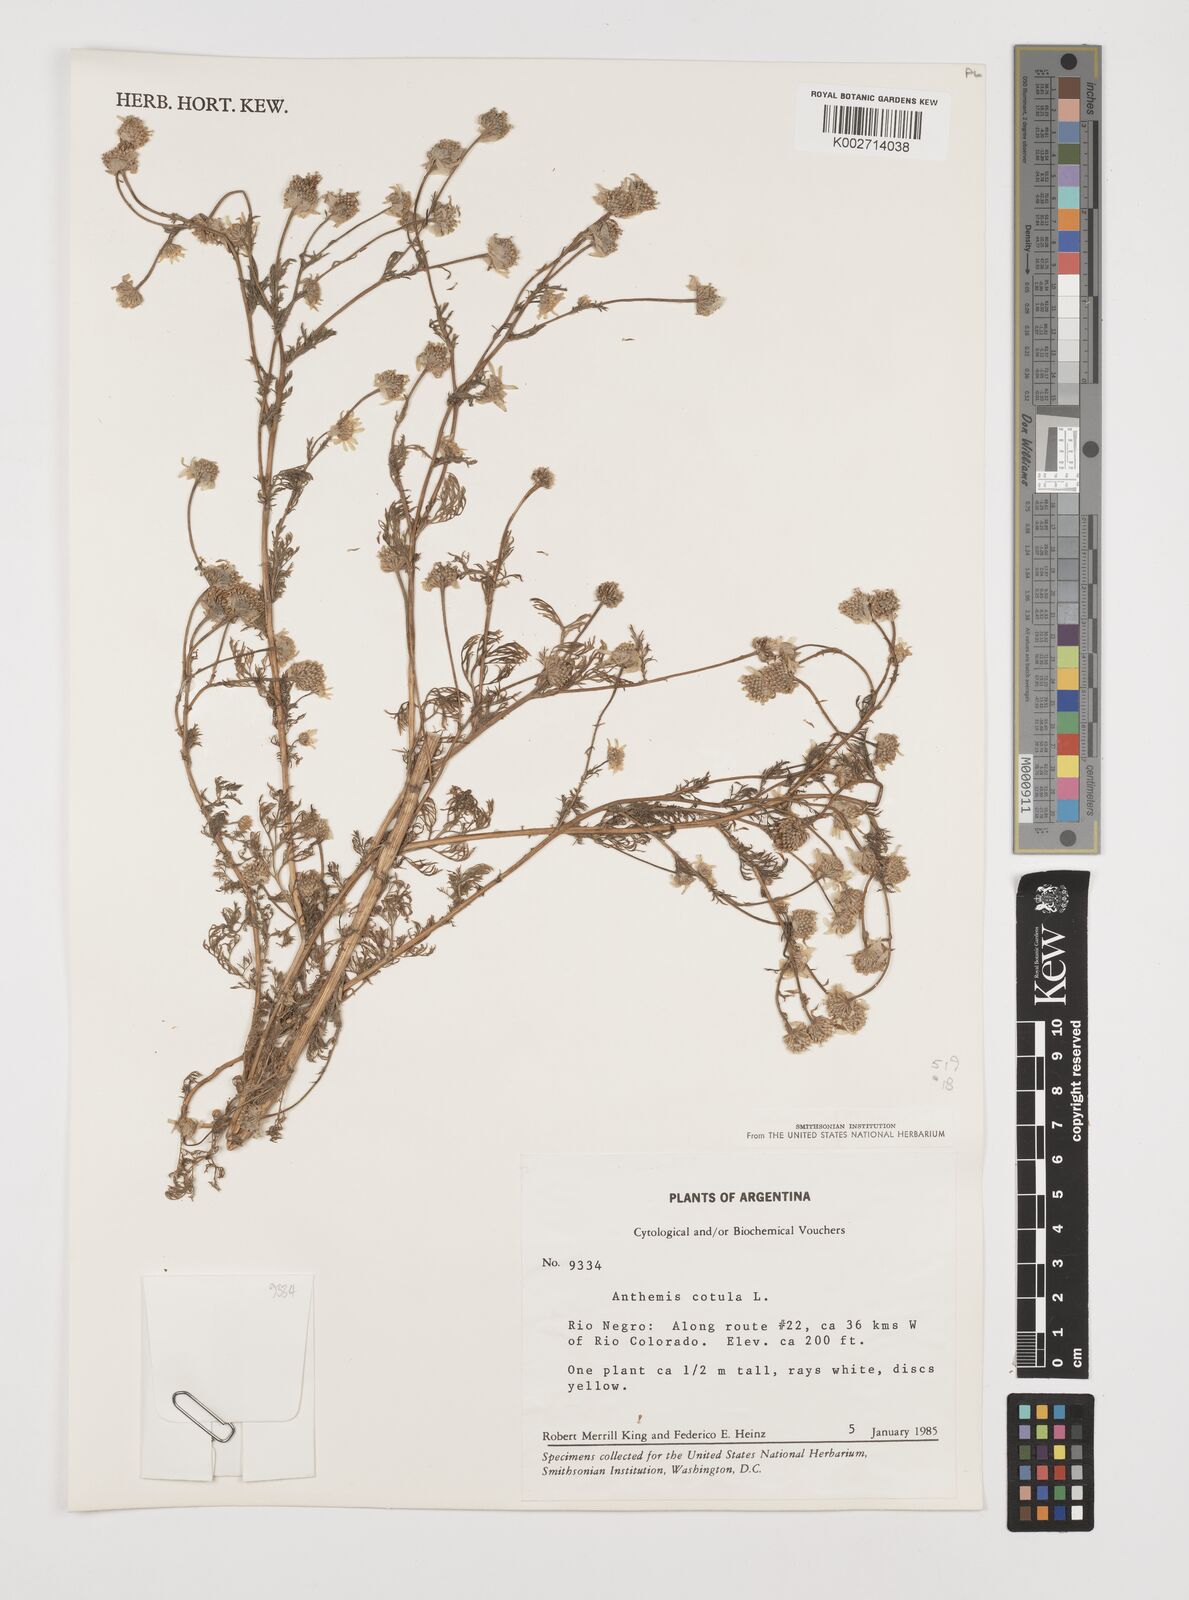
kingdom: Plantae
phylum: Tracheophyta
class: Magnoliopsida
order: Asterales
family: Asteraceae
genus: Anthemis
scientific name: Anthemis cotula
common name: Stinking chamomile
